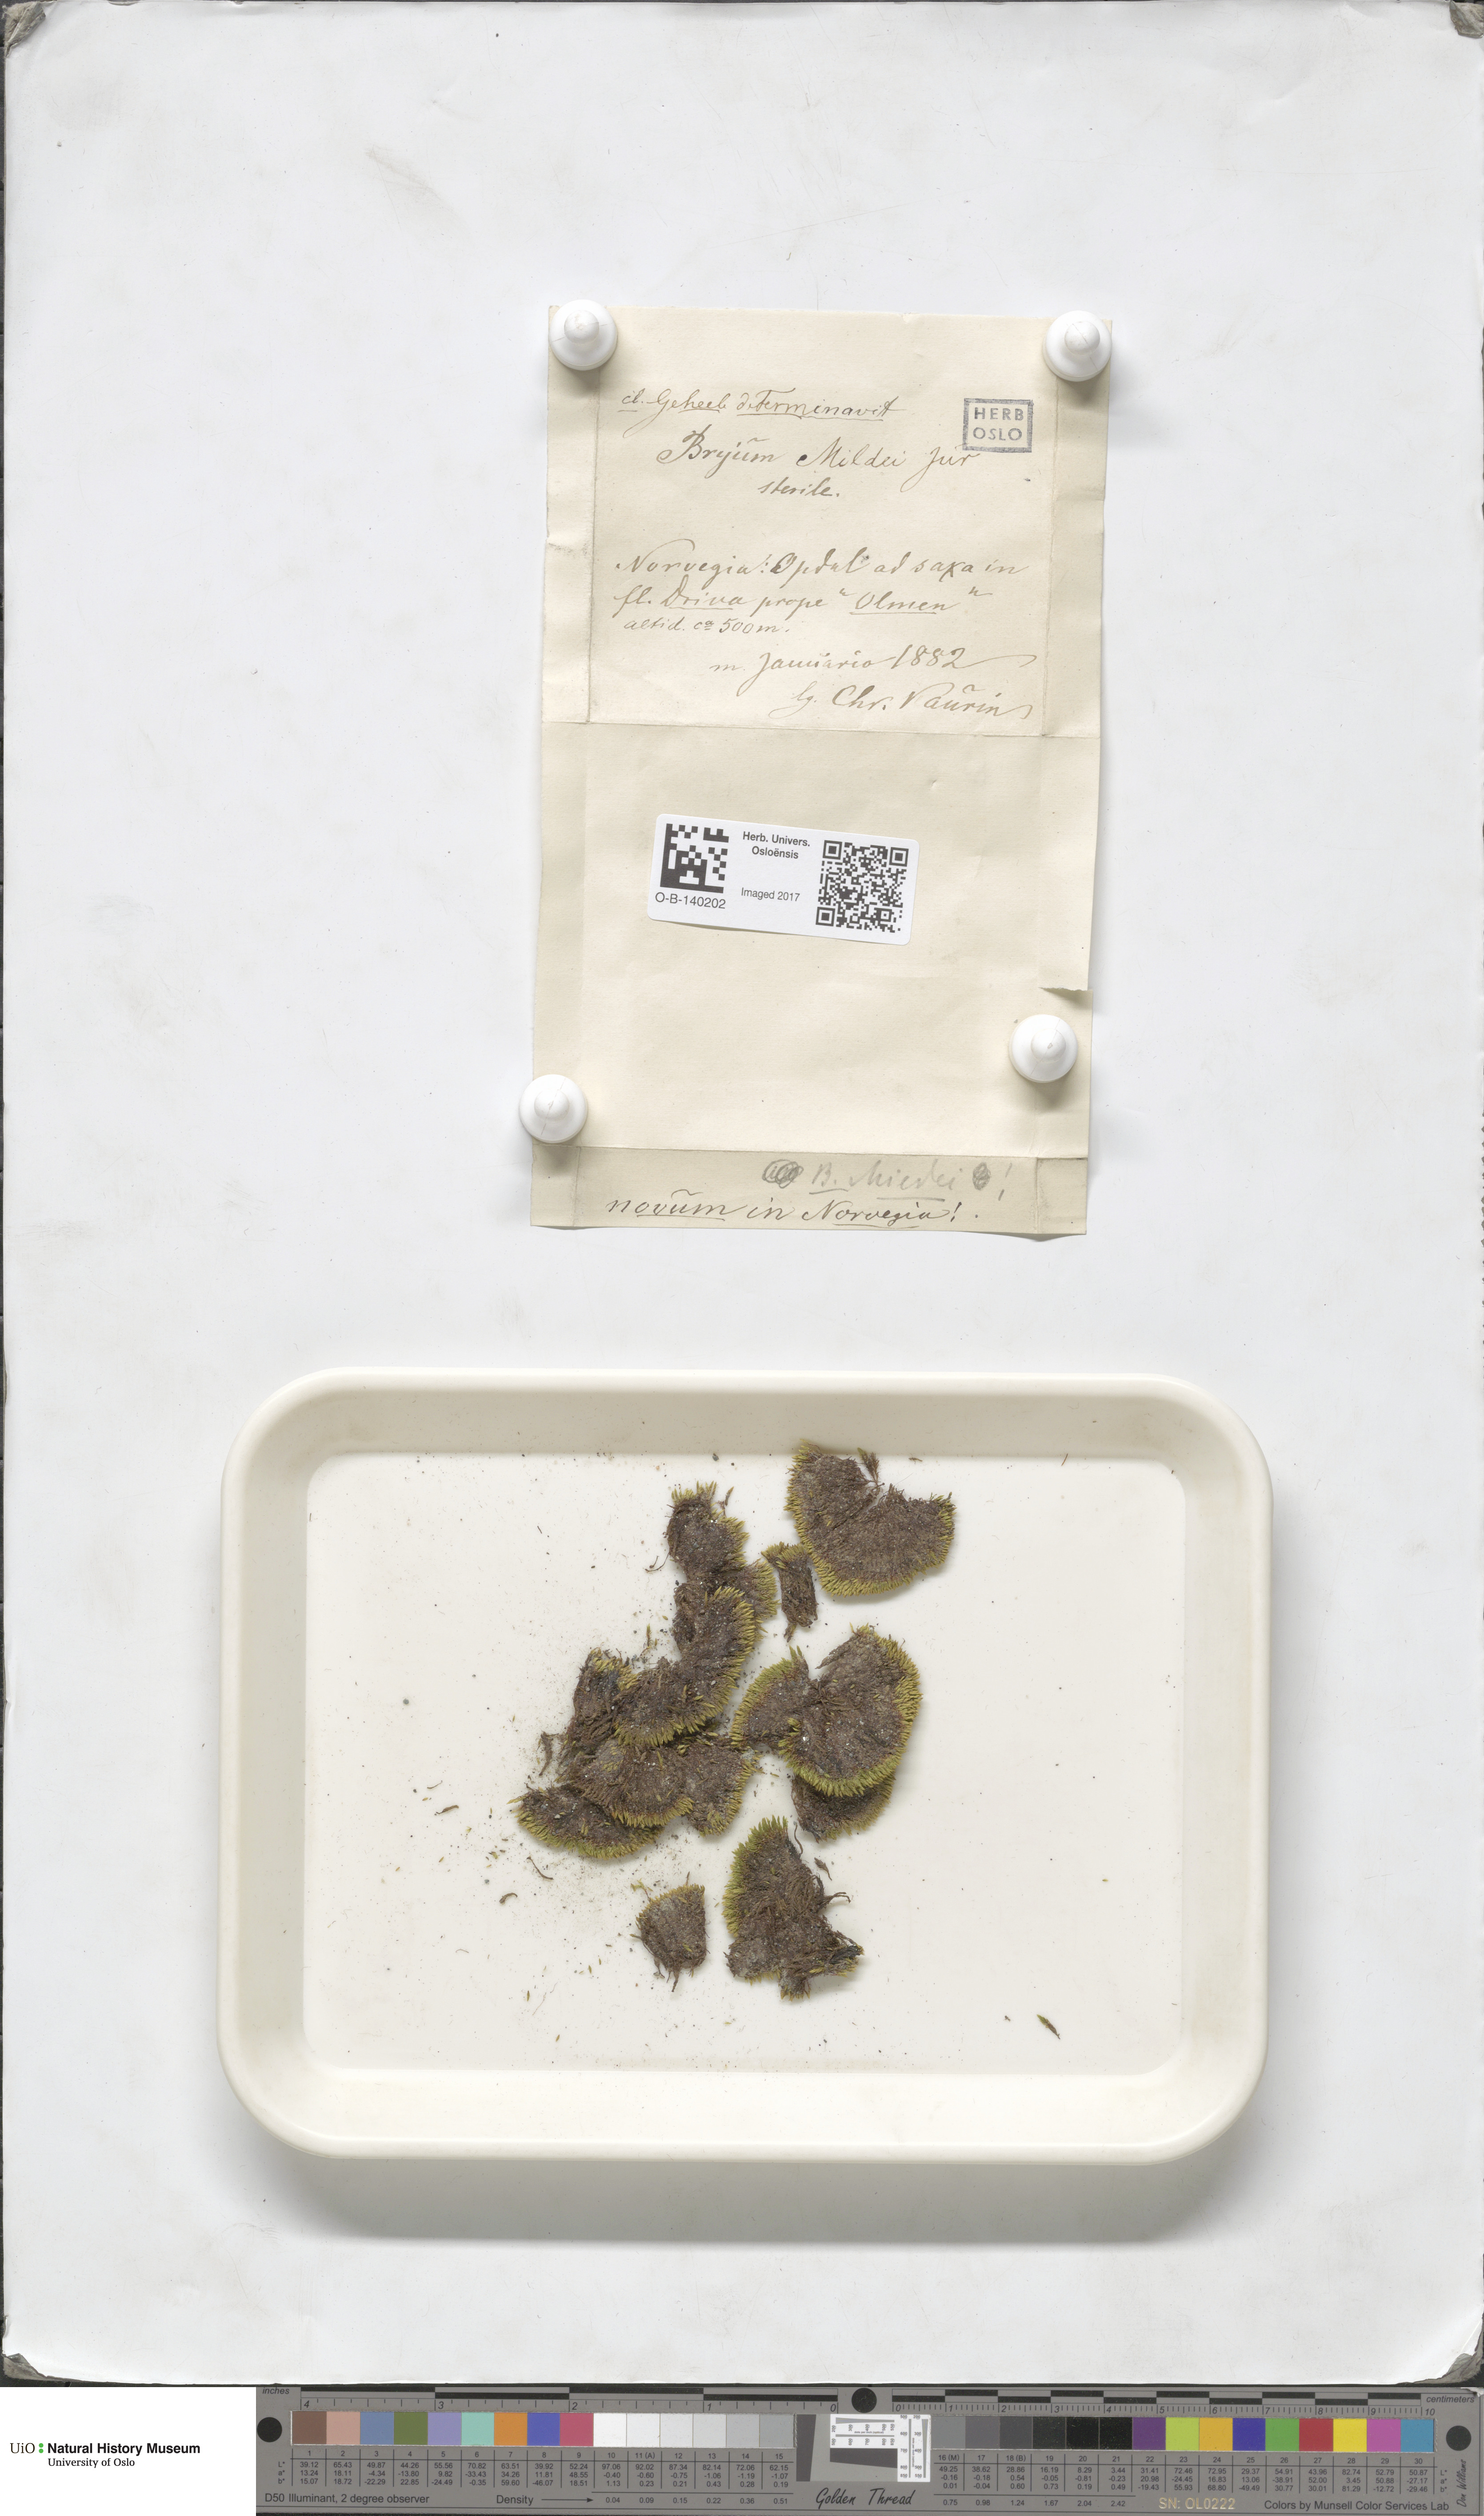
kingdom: Plantae
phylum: Bryophyta
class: Bryopsida
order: Bryales
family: Bryaceae
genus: Imbribryum
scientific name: Imbribryum mildeanum
